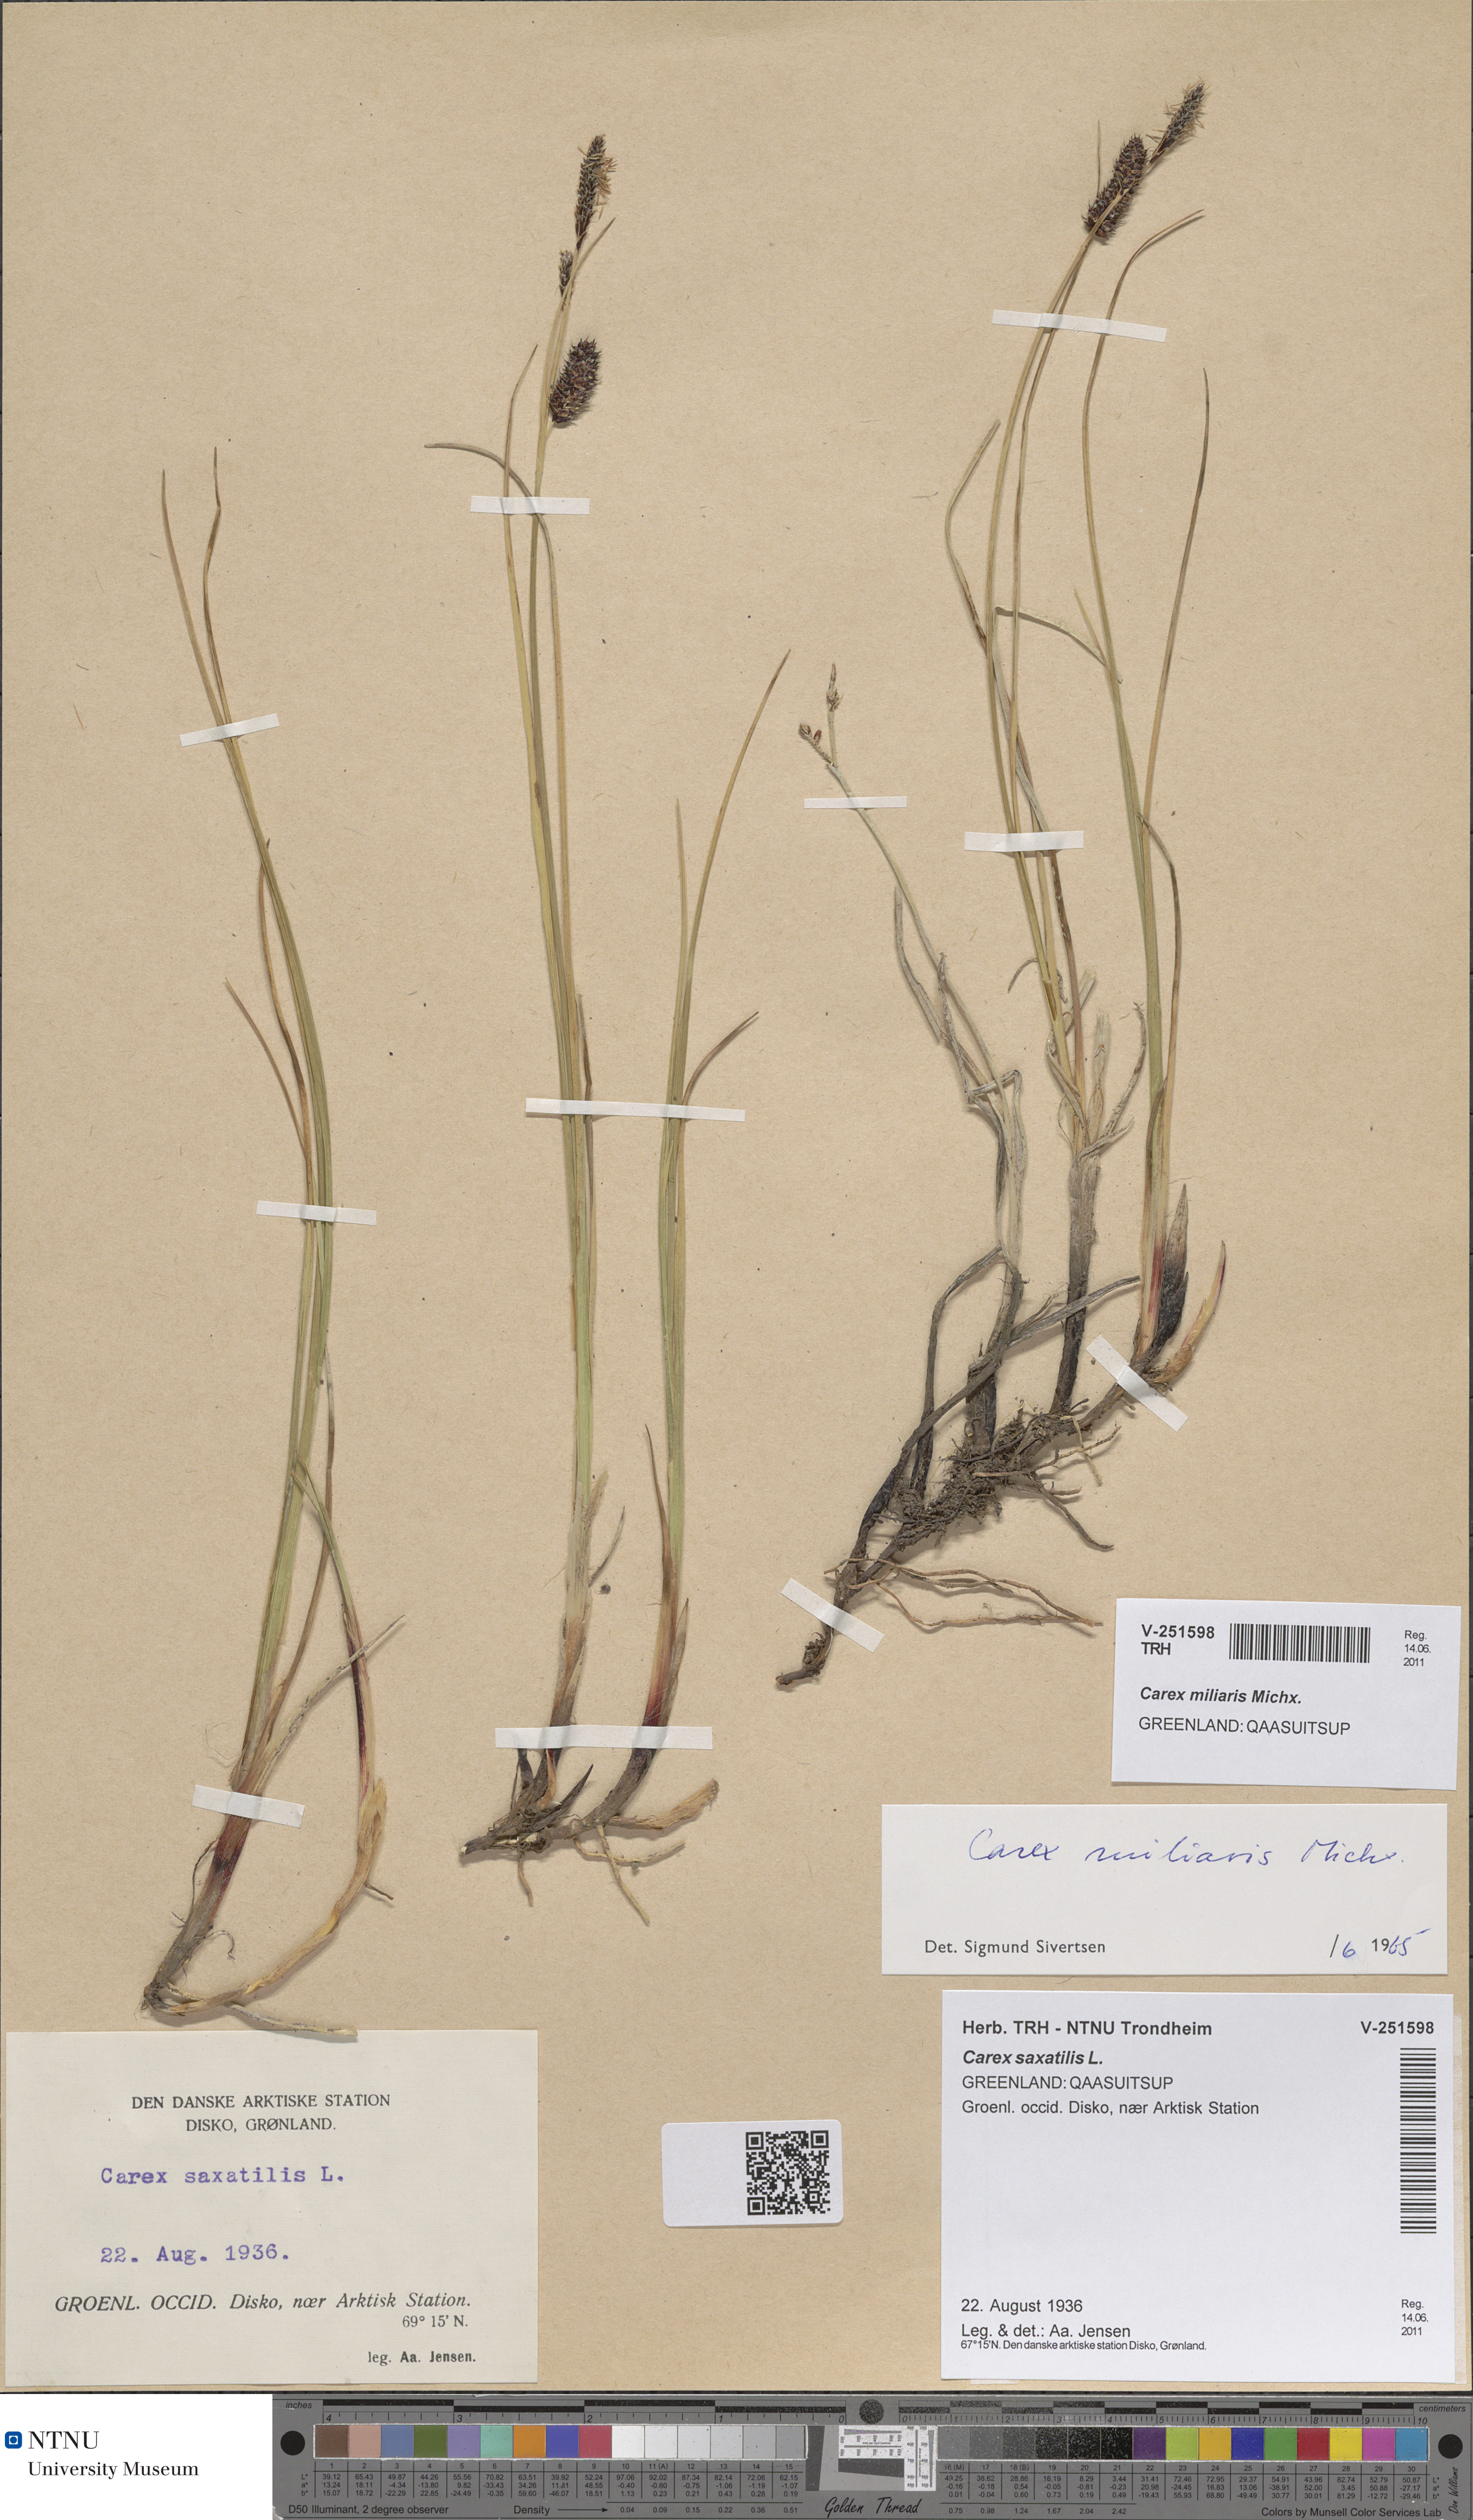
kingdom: Plantae
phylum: Tracheophyta
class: Liliopsida
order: Poales
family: Cyperaceae
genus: Carex
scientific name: Carex miliaris
